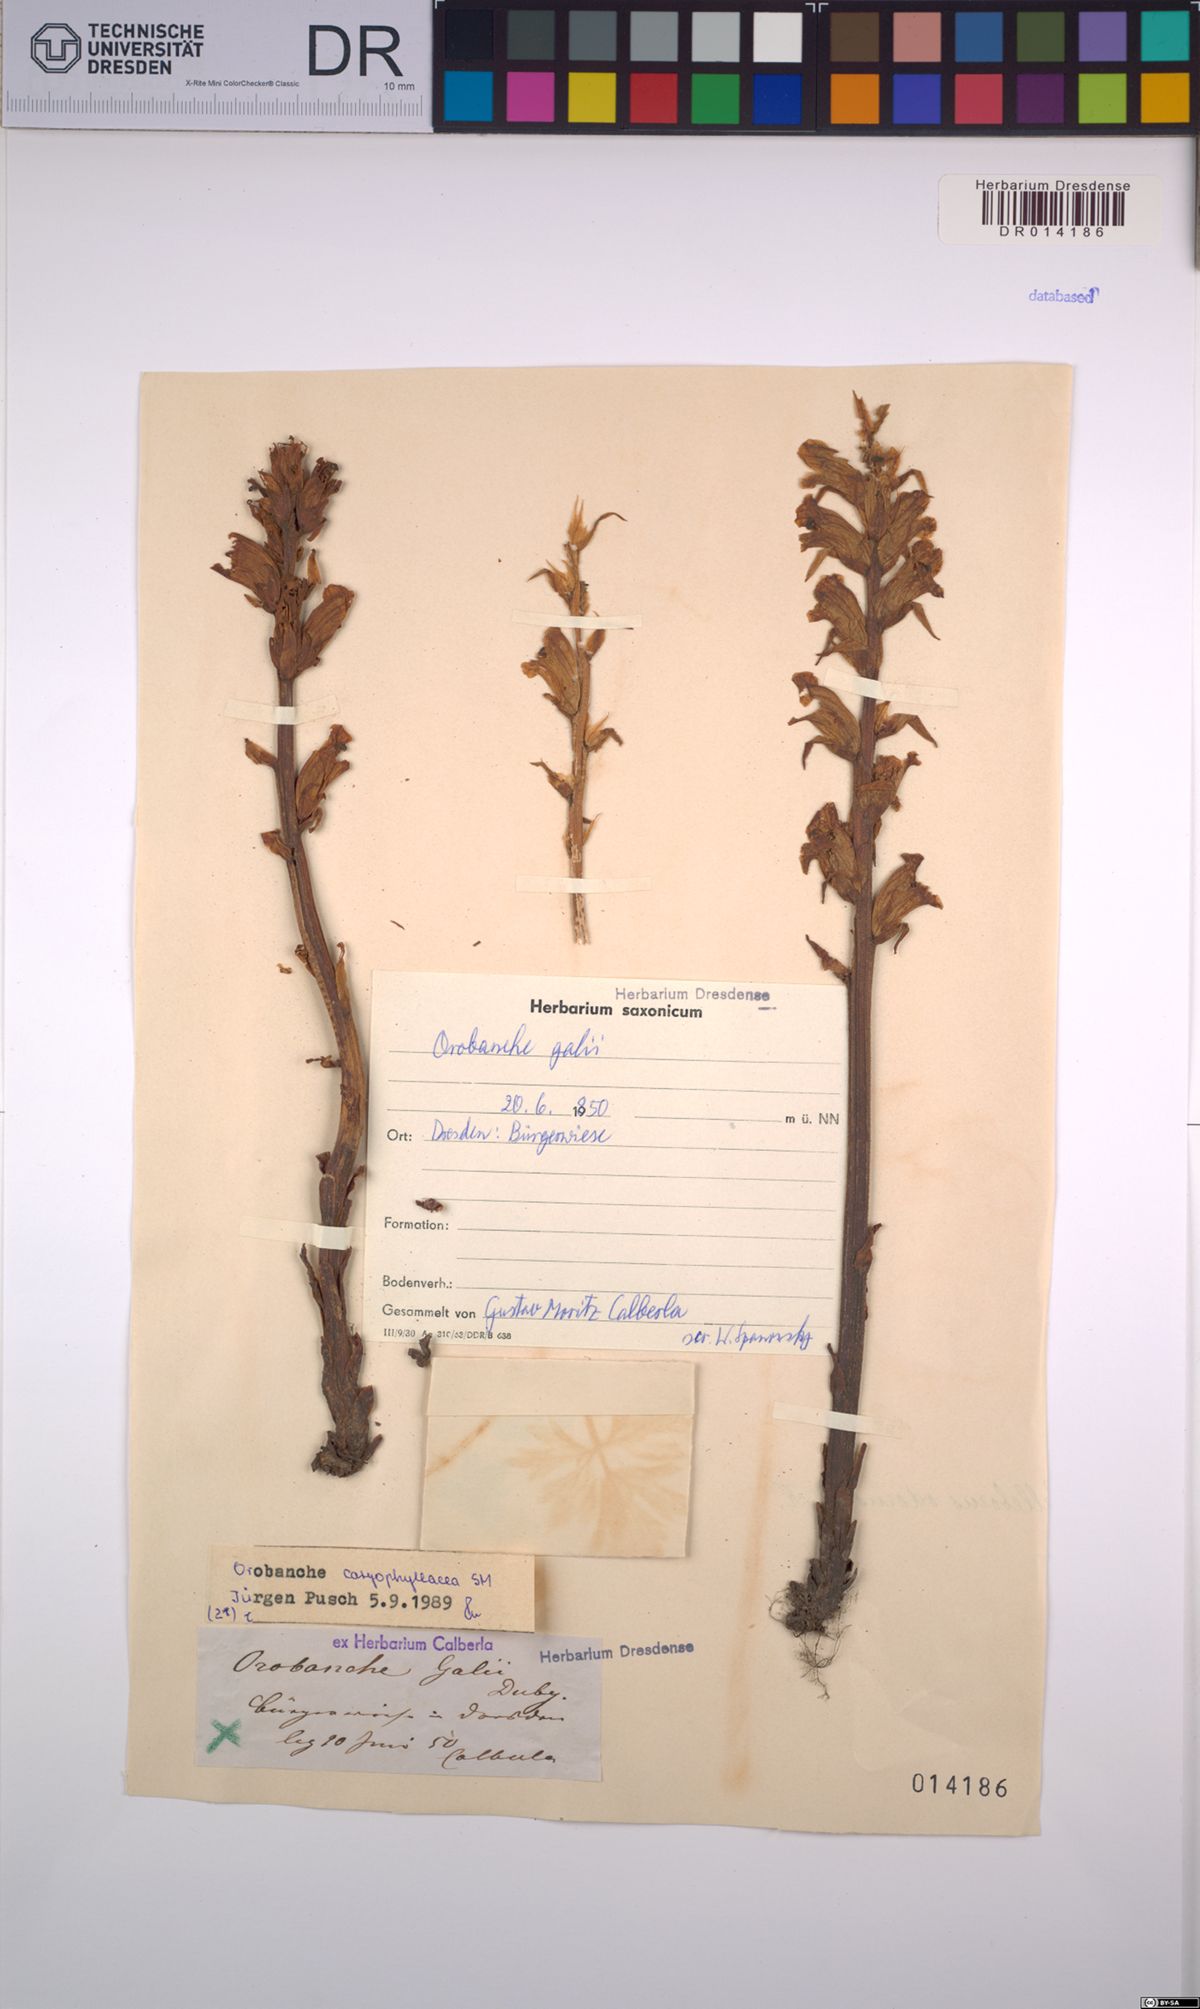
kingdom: Plantae
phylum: Tracheophyta
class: Magnoliopsida
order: Lamiales
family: Orobanchaceae
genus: Orobanche
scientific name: Orobanche caryophyllacea
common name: Bedstraw broomrape
